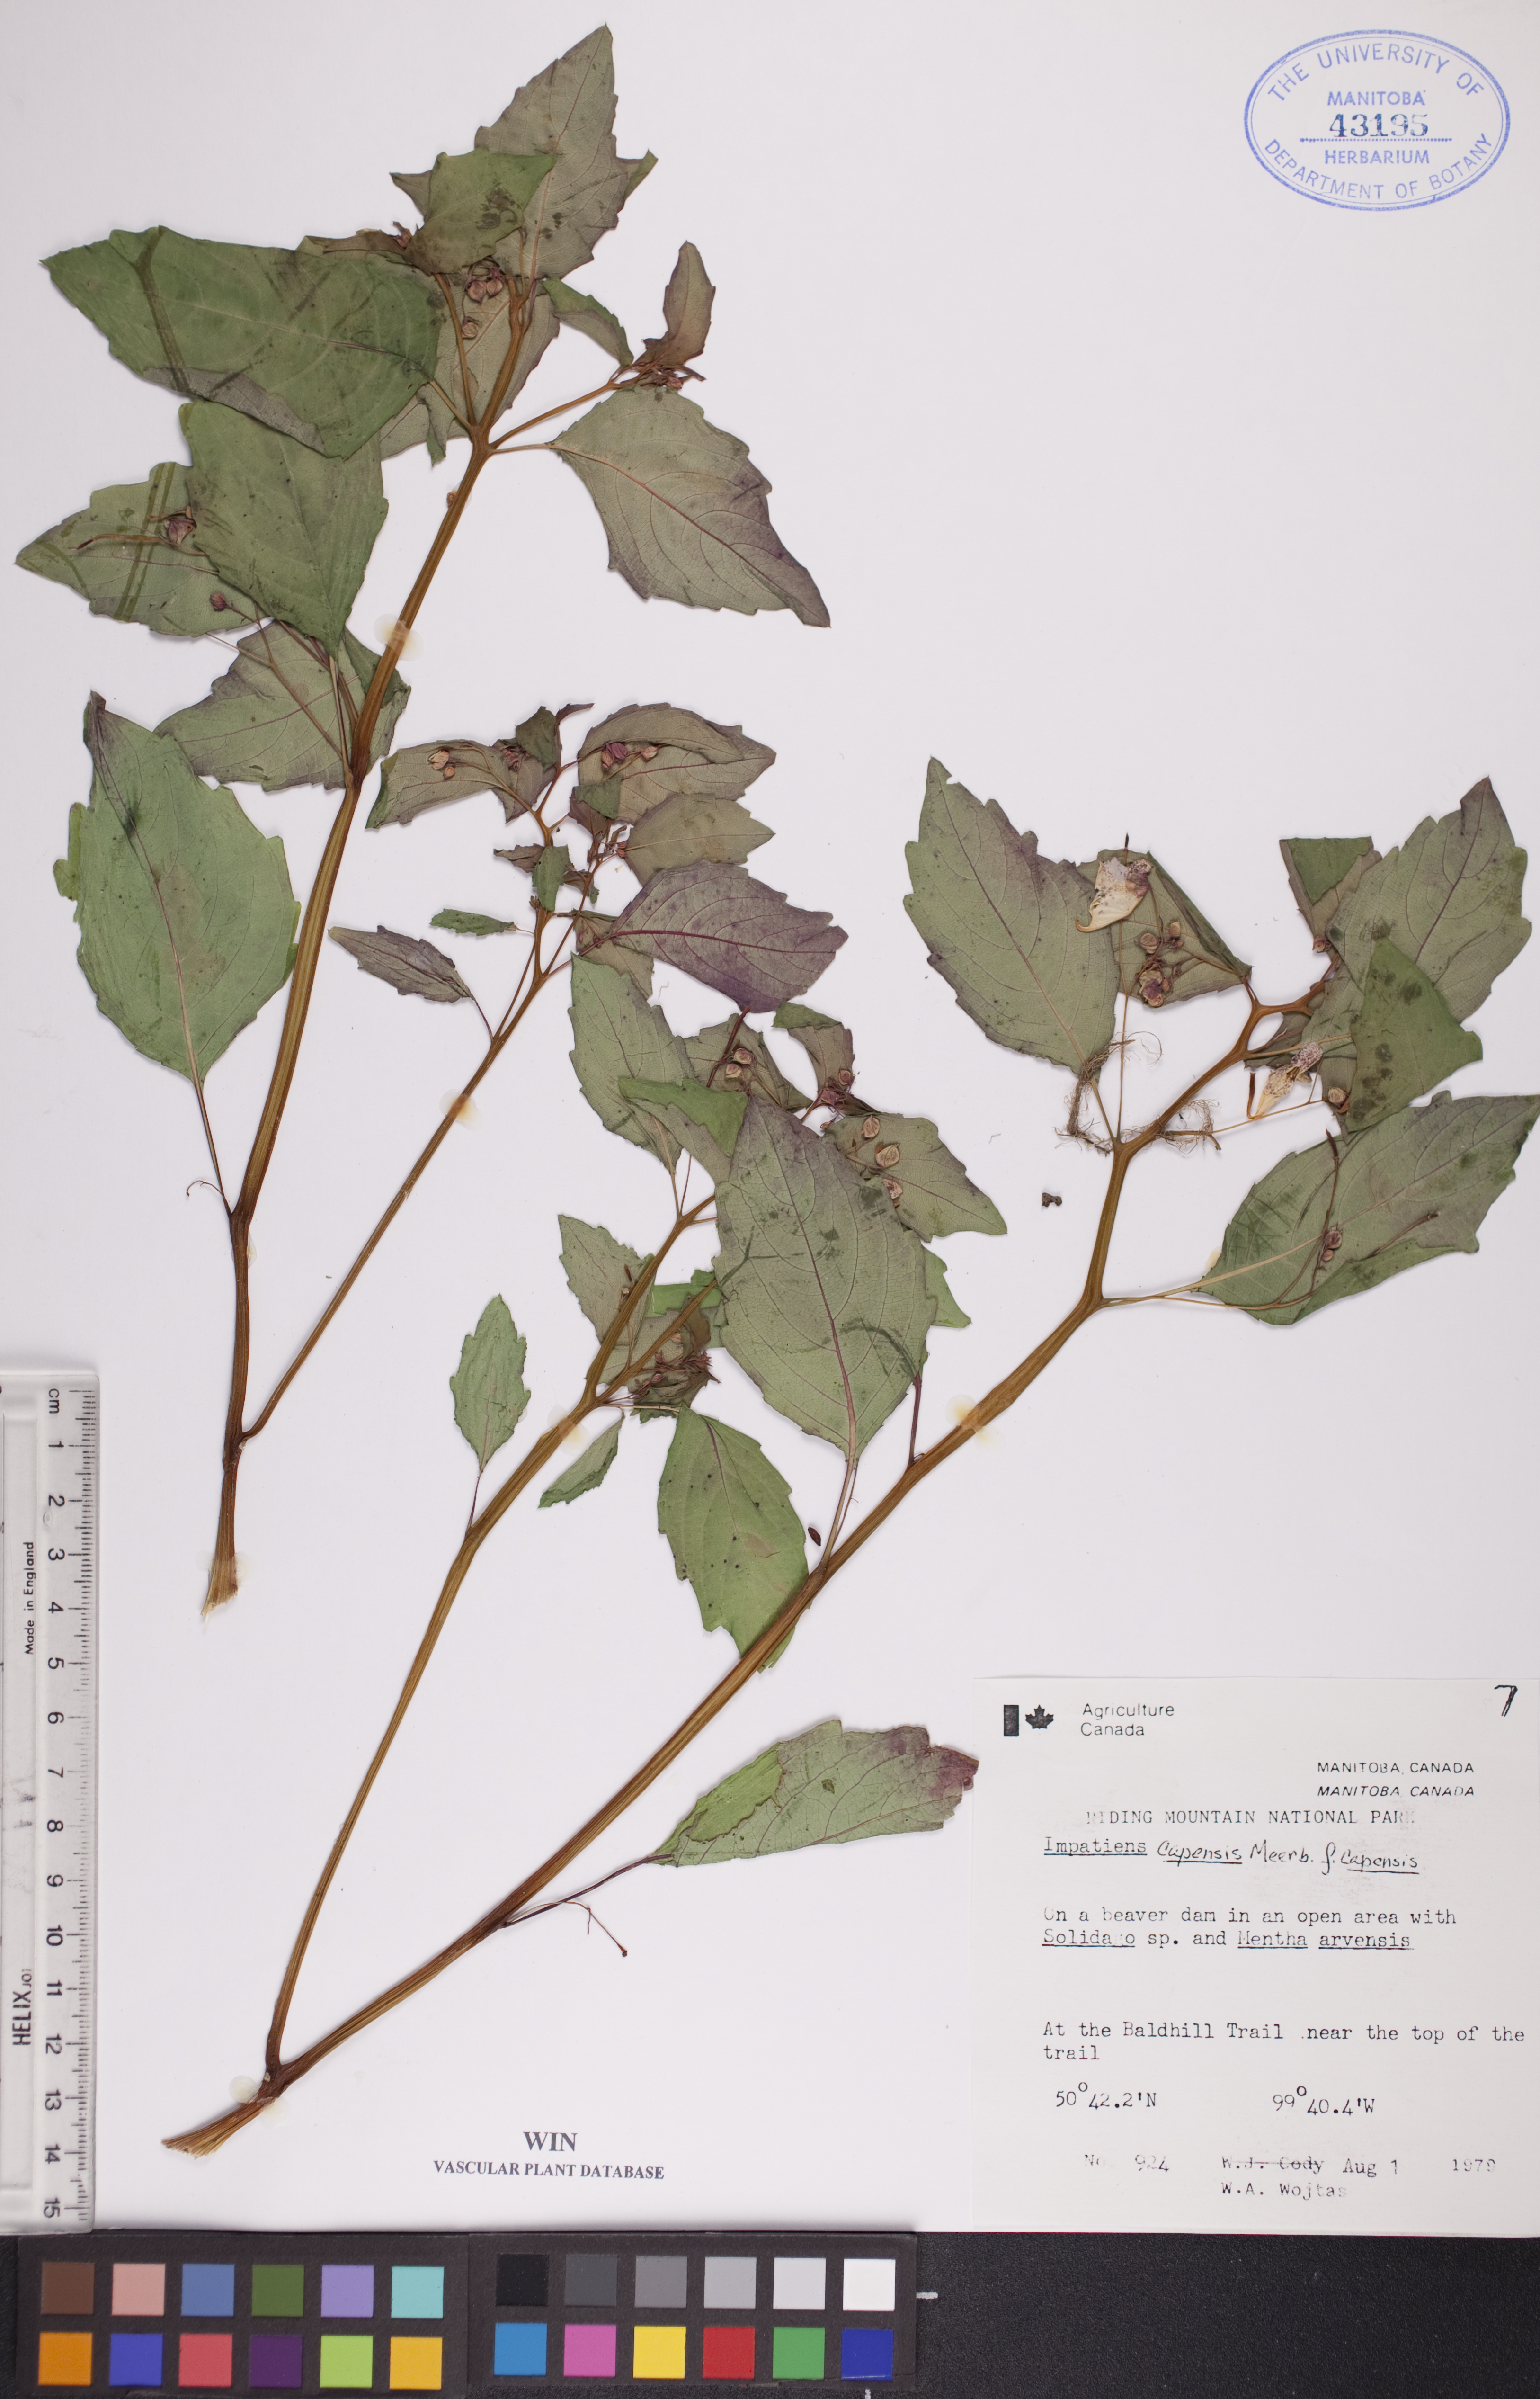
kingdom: Plantae
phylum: Tracheophyta
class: Magnoliopsida
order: Ericales
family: Balsaminaceae
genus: Impatiens
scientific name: Impatiens capensis
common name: Orange balsam
